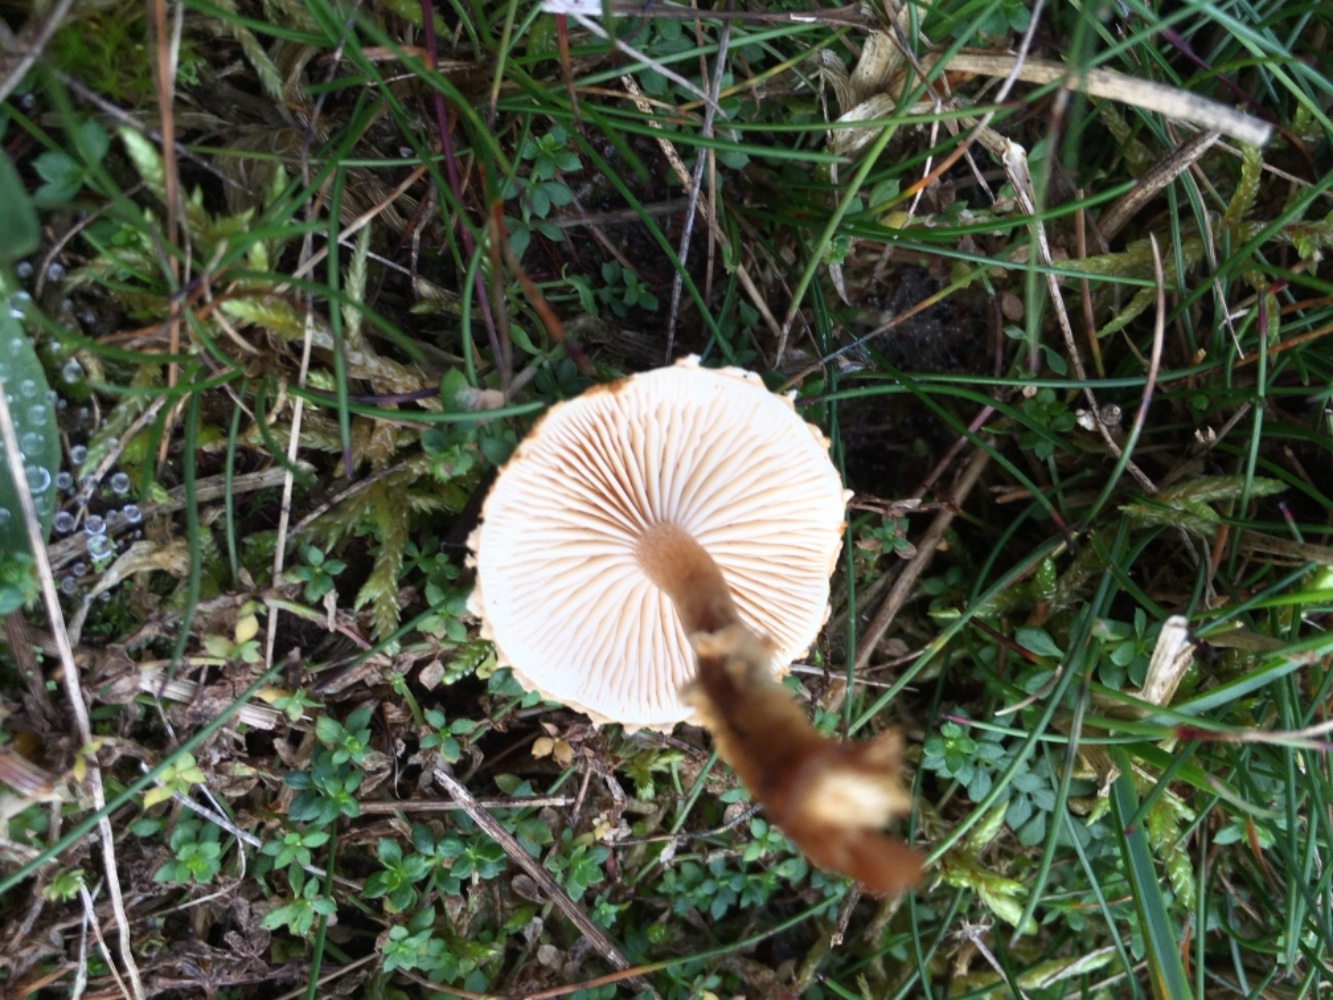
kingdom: Fungi
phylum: Basidiomycota
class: Agaricomycetes
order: Agaricales
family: Tricholomataceae
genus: Cystoderma
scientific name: Cystoderma jasonis
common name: gulkødet grynhat
